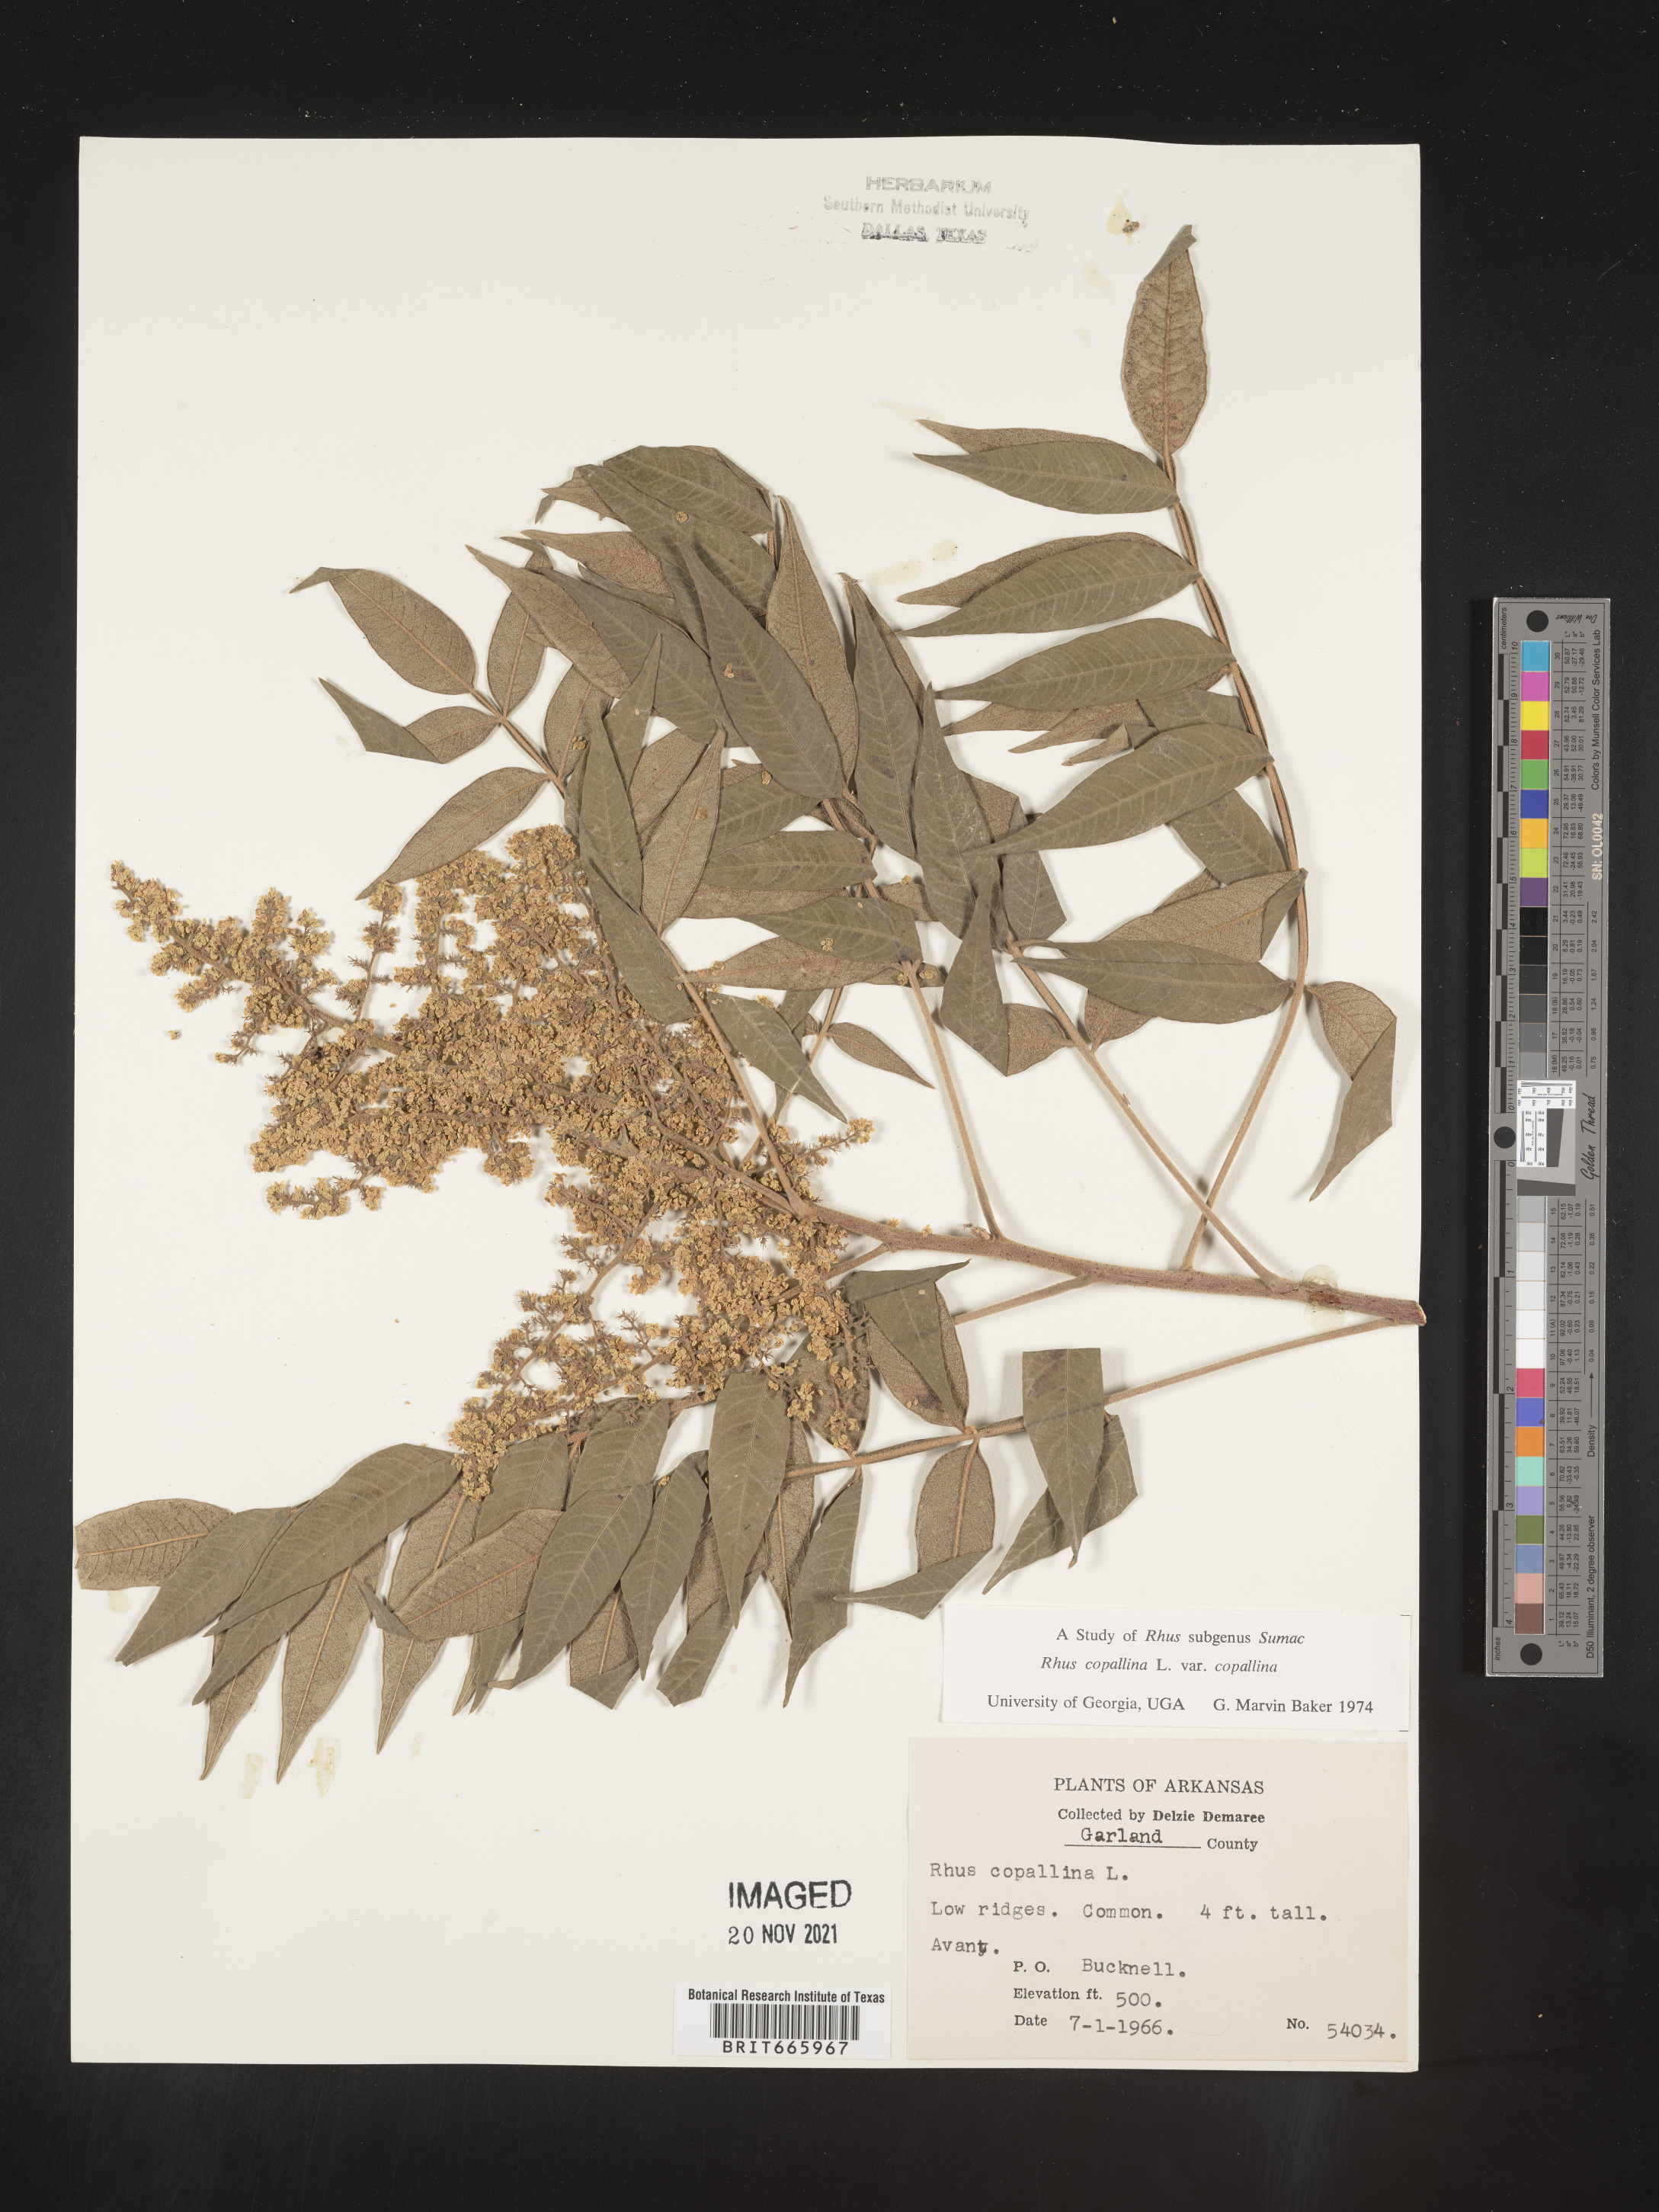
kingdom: Plantae
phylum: Tracheophyta
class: Magnoliopsida
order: Sapindales
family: Anacardiaceae
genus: Rhus
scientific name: Rhus copallina
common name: Shining sumac
